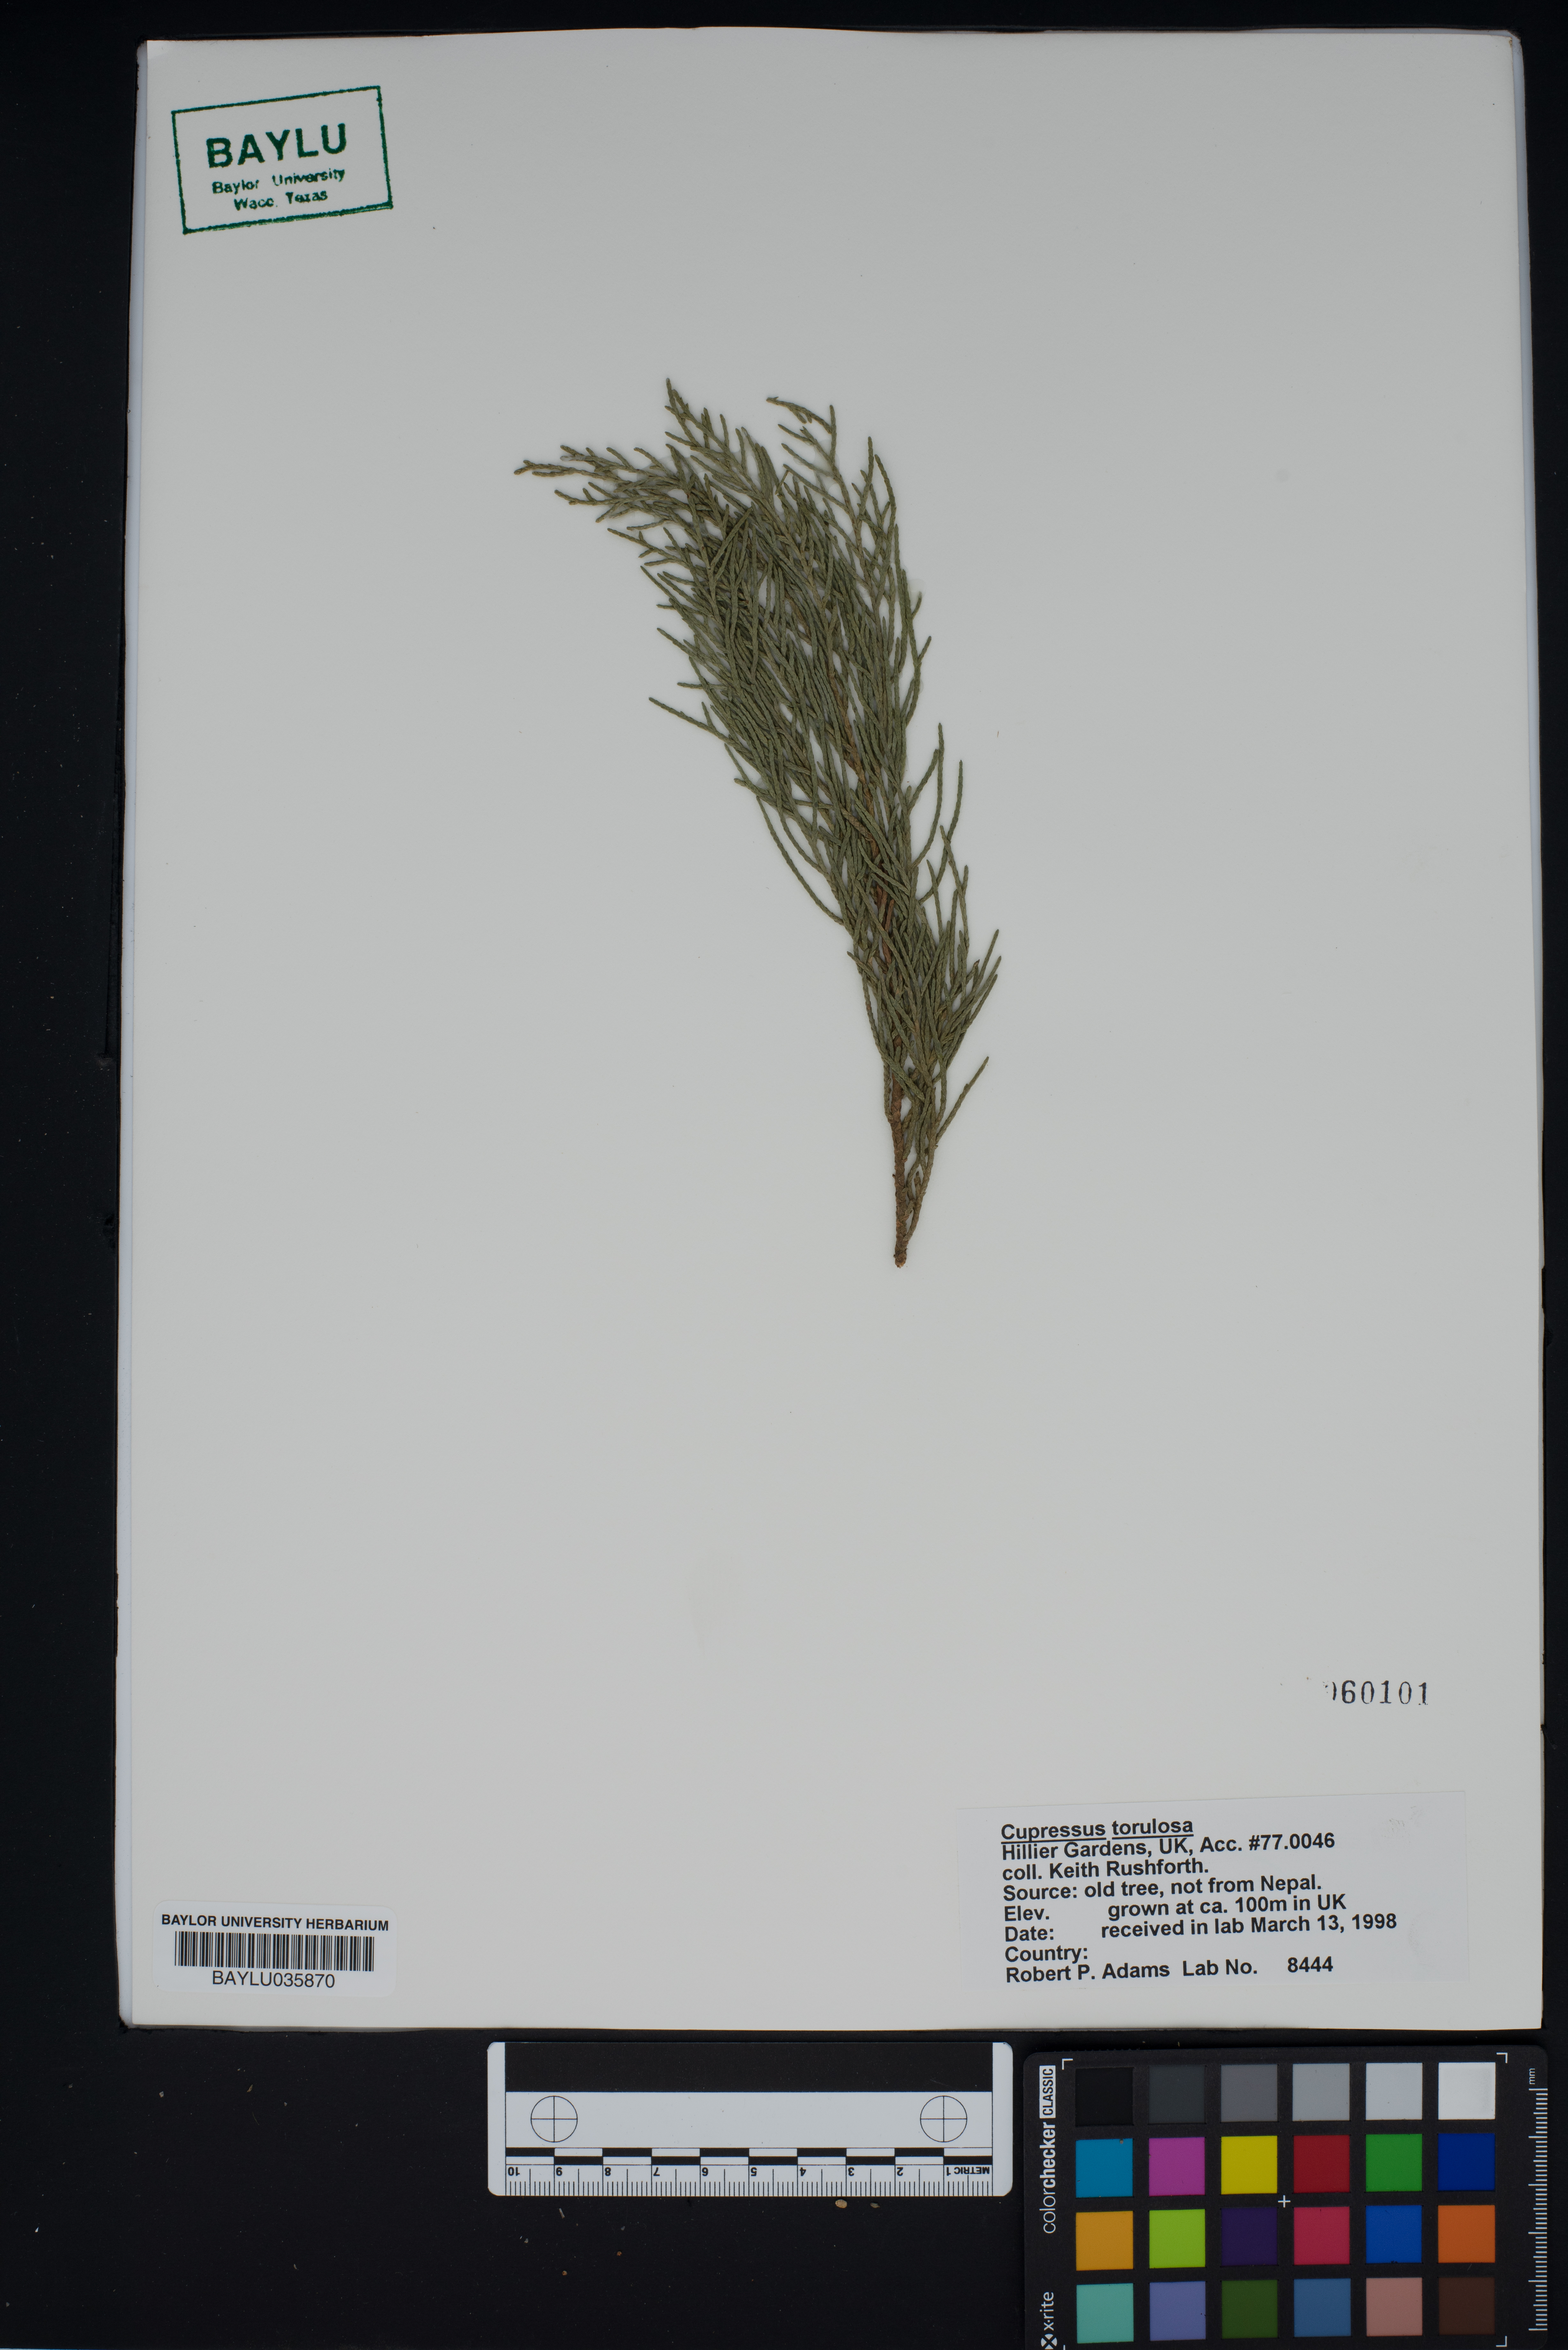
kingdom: Plantae
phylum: Tracheophyta
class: Pinopsida
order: Pinales
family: Cupressaceae
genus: Cupressus
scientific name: Cupressus torulosa
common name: Himalayan cypress
